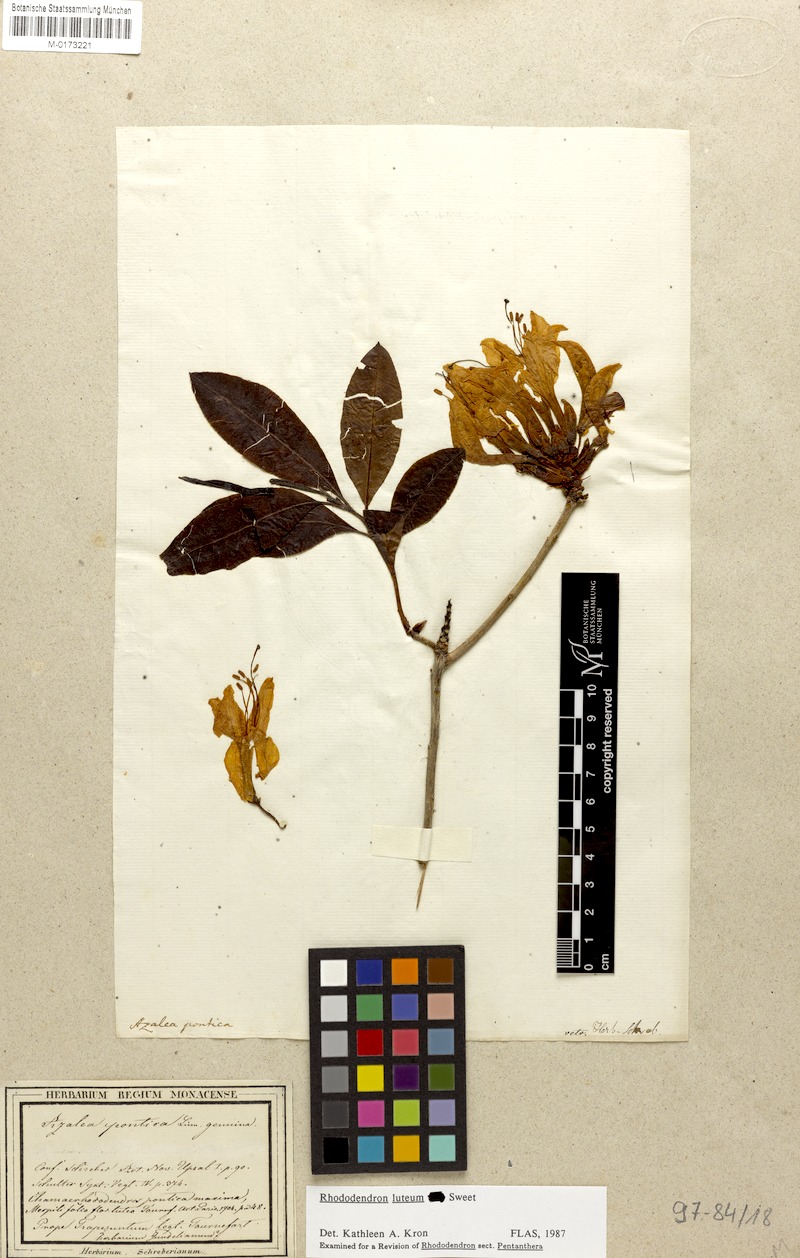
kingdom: Plantae
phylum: Tracheophyta
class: Magnoliopsida
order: Ericales
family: Ericaceae
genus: Rhododendron
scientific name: Rhododendron luteum
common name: Yellow azalea
